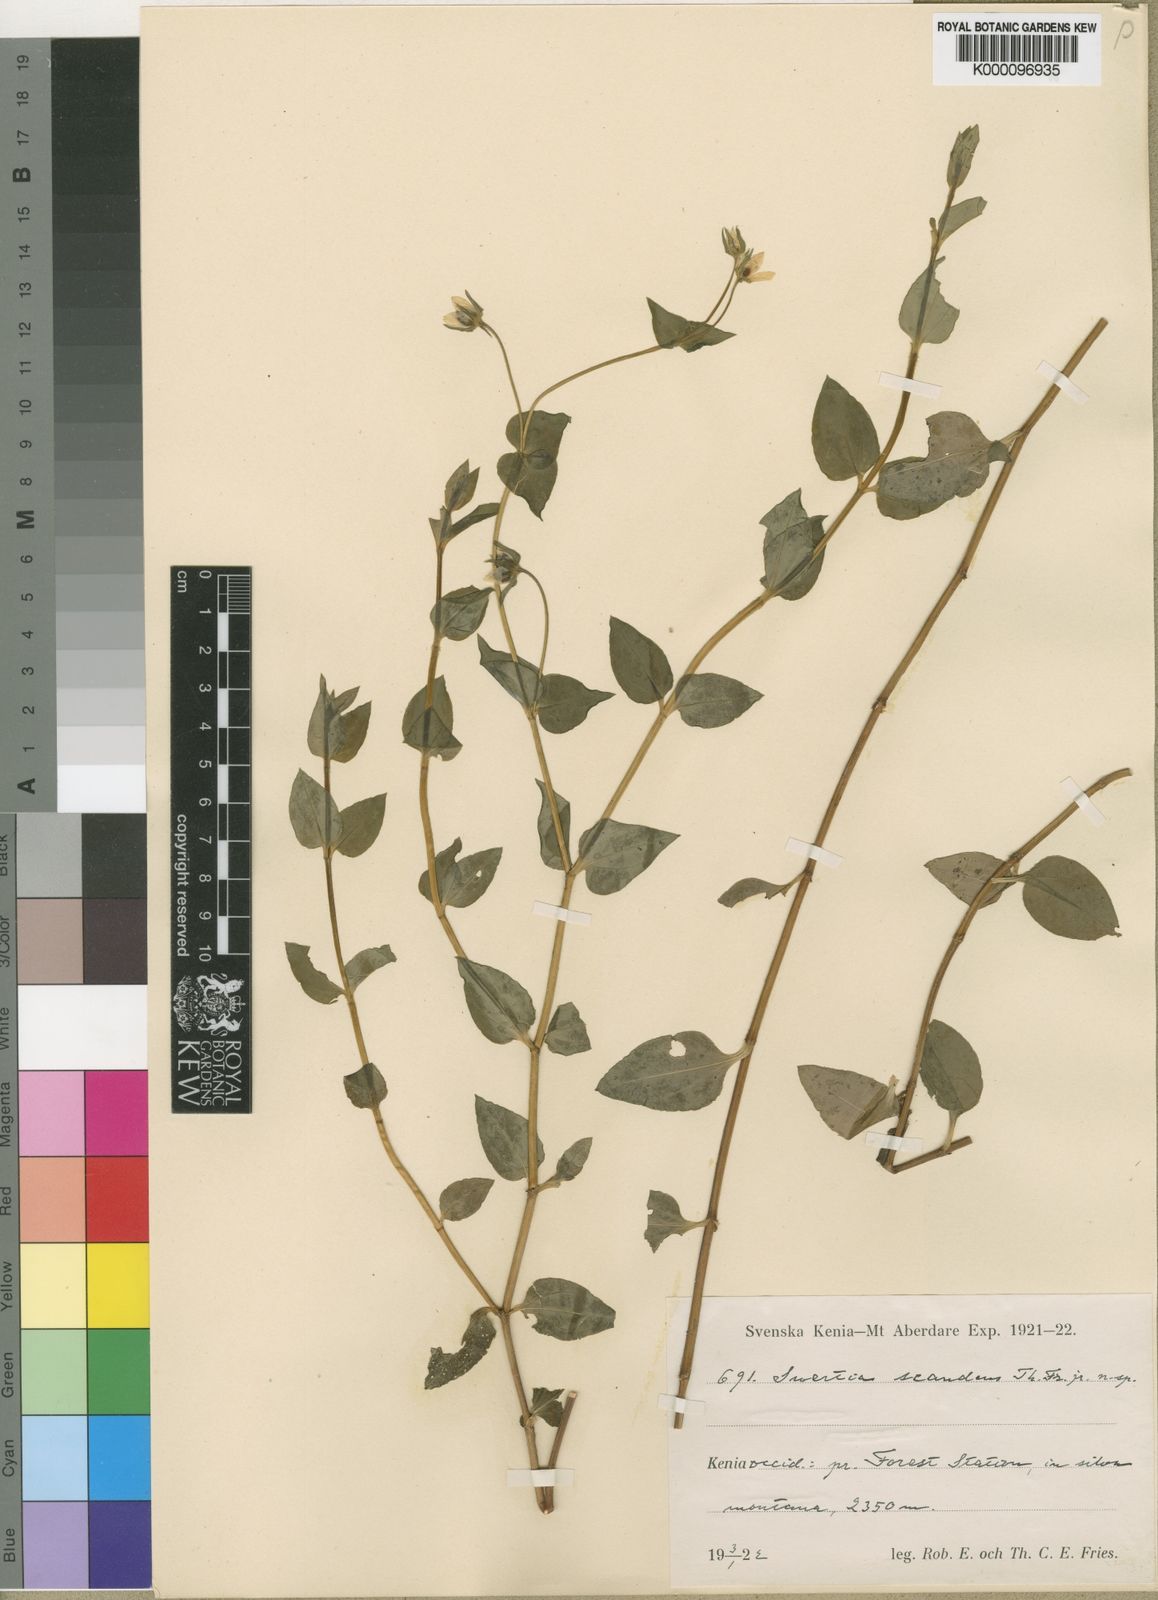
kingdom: Plantae
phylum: Tracheophyta
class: Magnoliopsida
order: Gentianales
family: Gentianaceae
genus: Swertia
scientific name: Swertia sarmentosa
